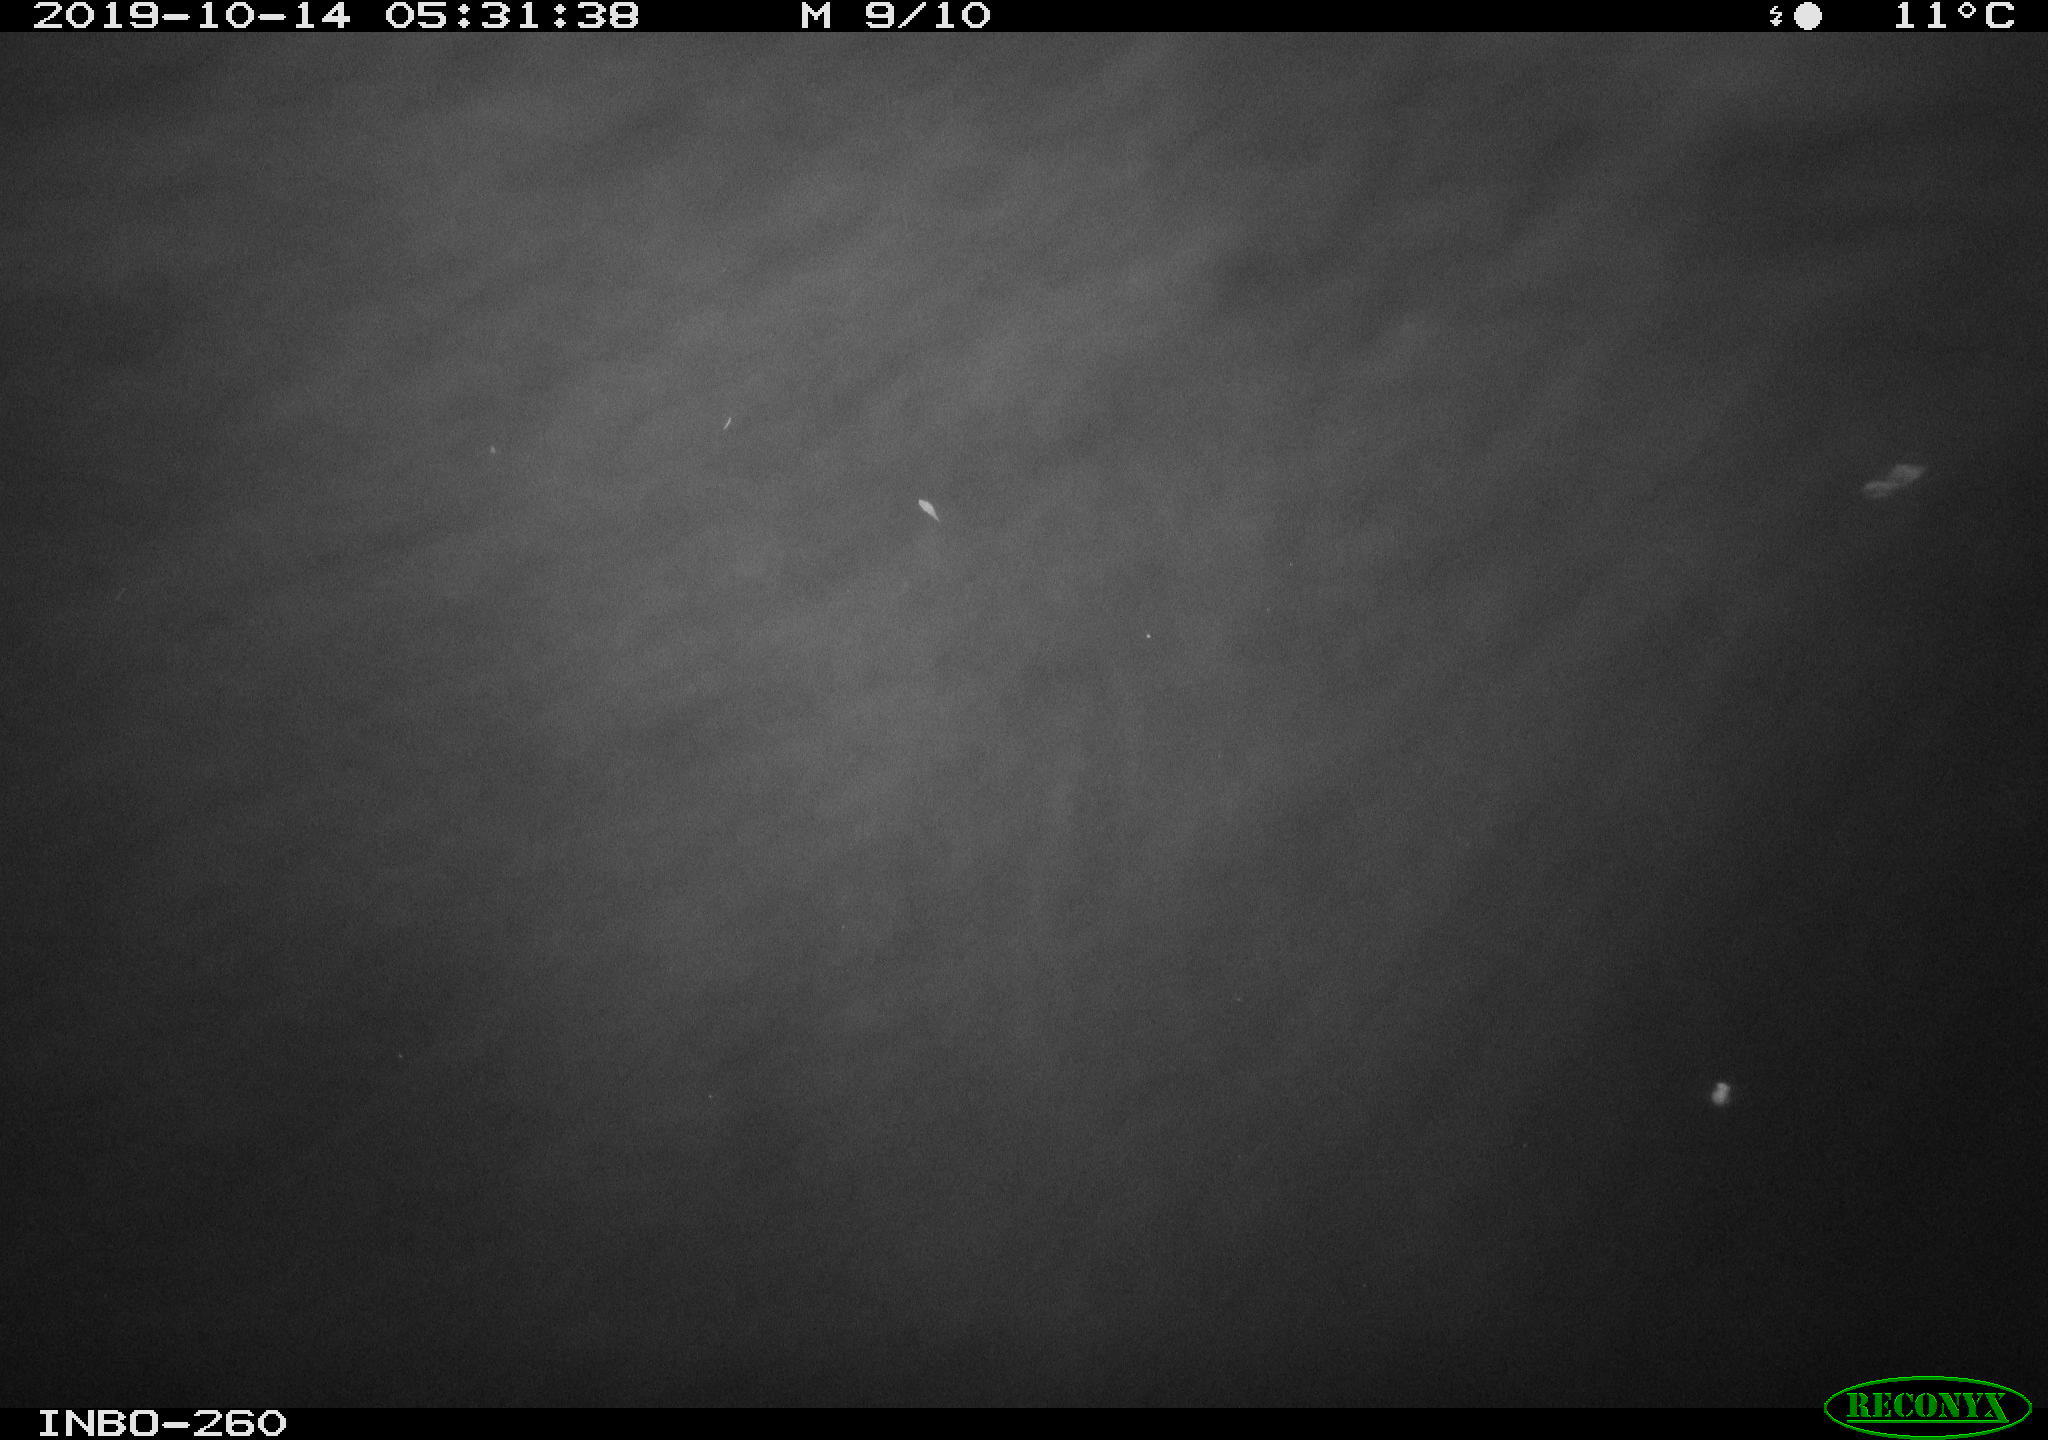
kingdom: Animalia
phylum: Chordata
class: Aves
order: Anseriformes
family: Anatidae
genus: Anas
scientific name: Anas platyrhynchos
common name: Mallard
